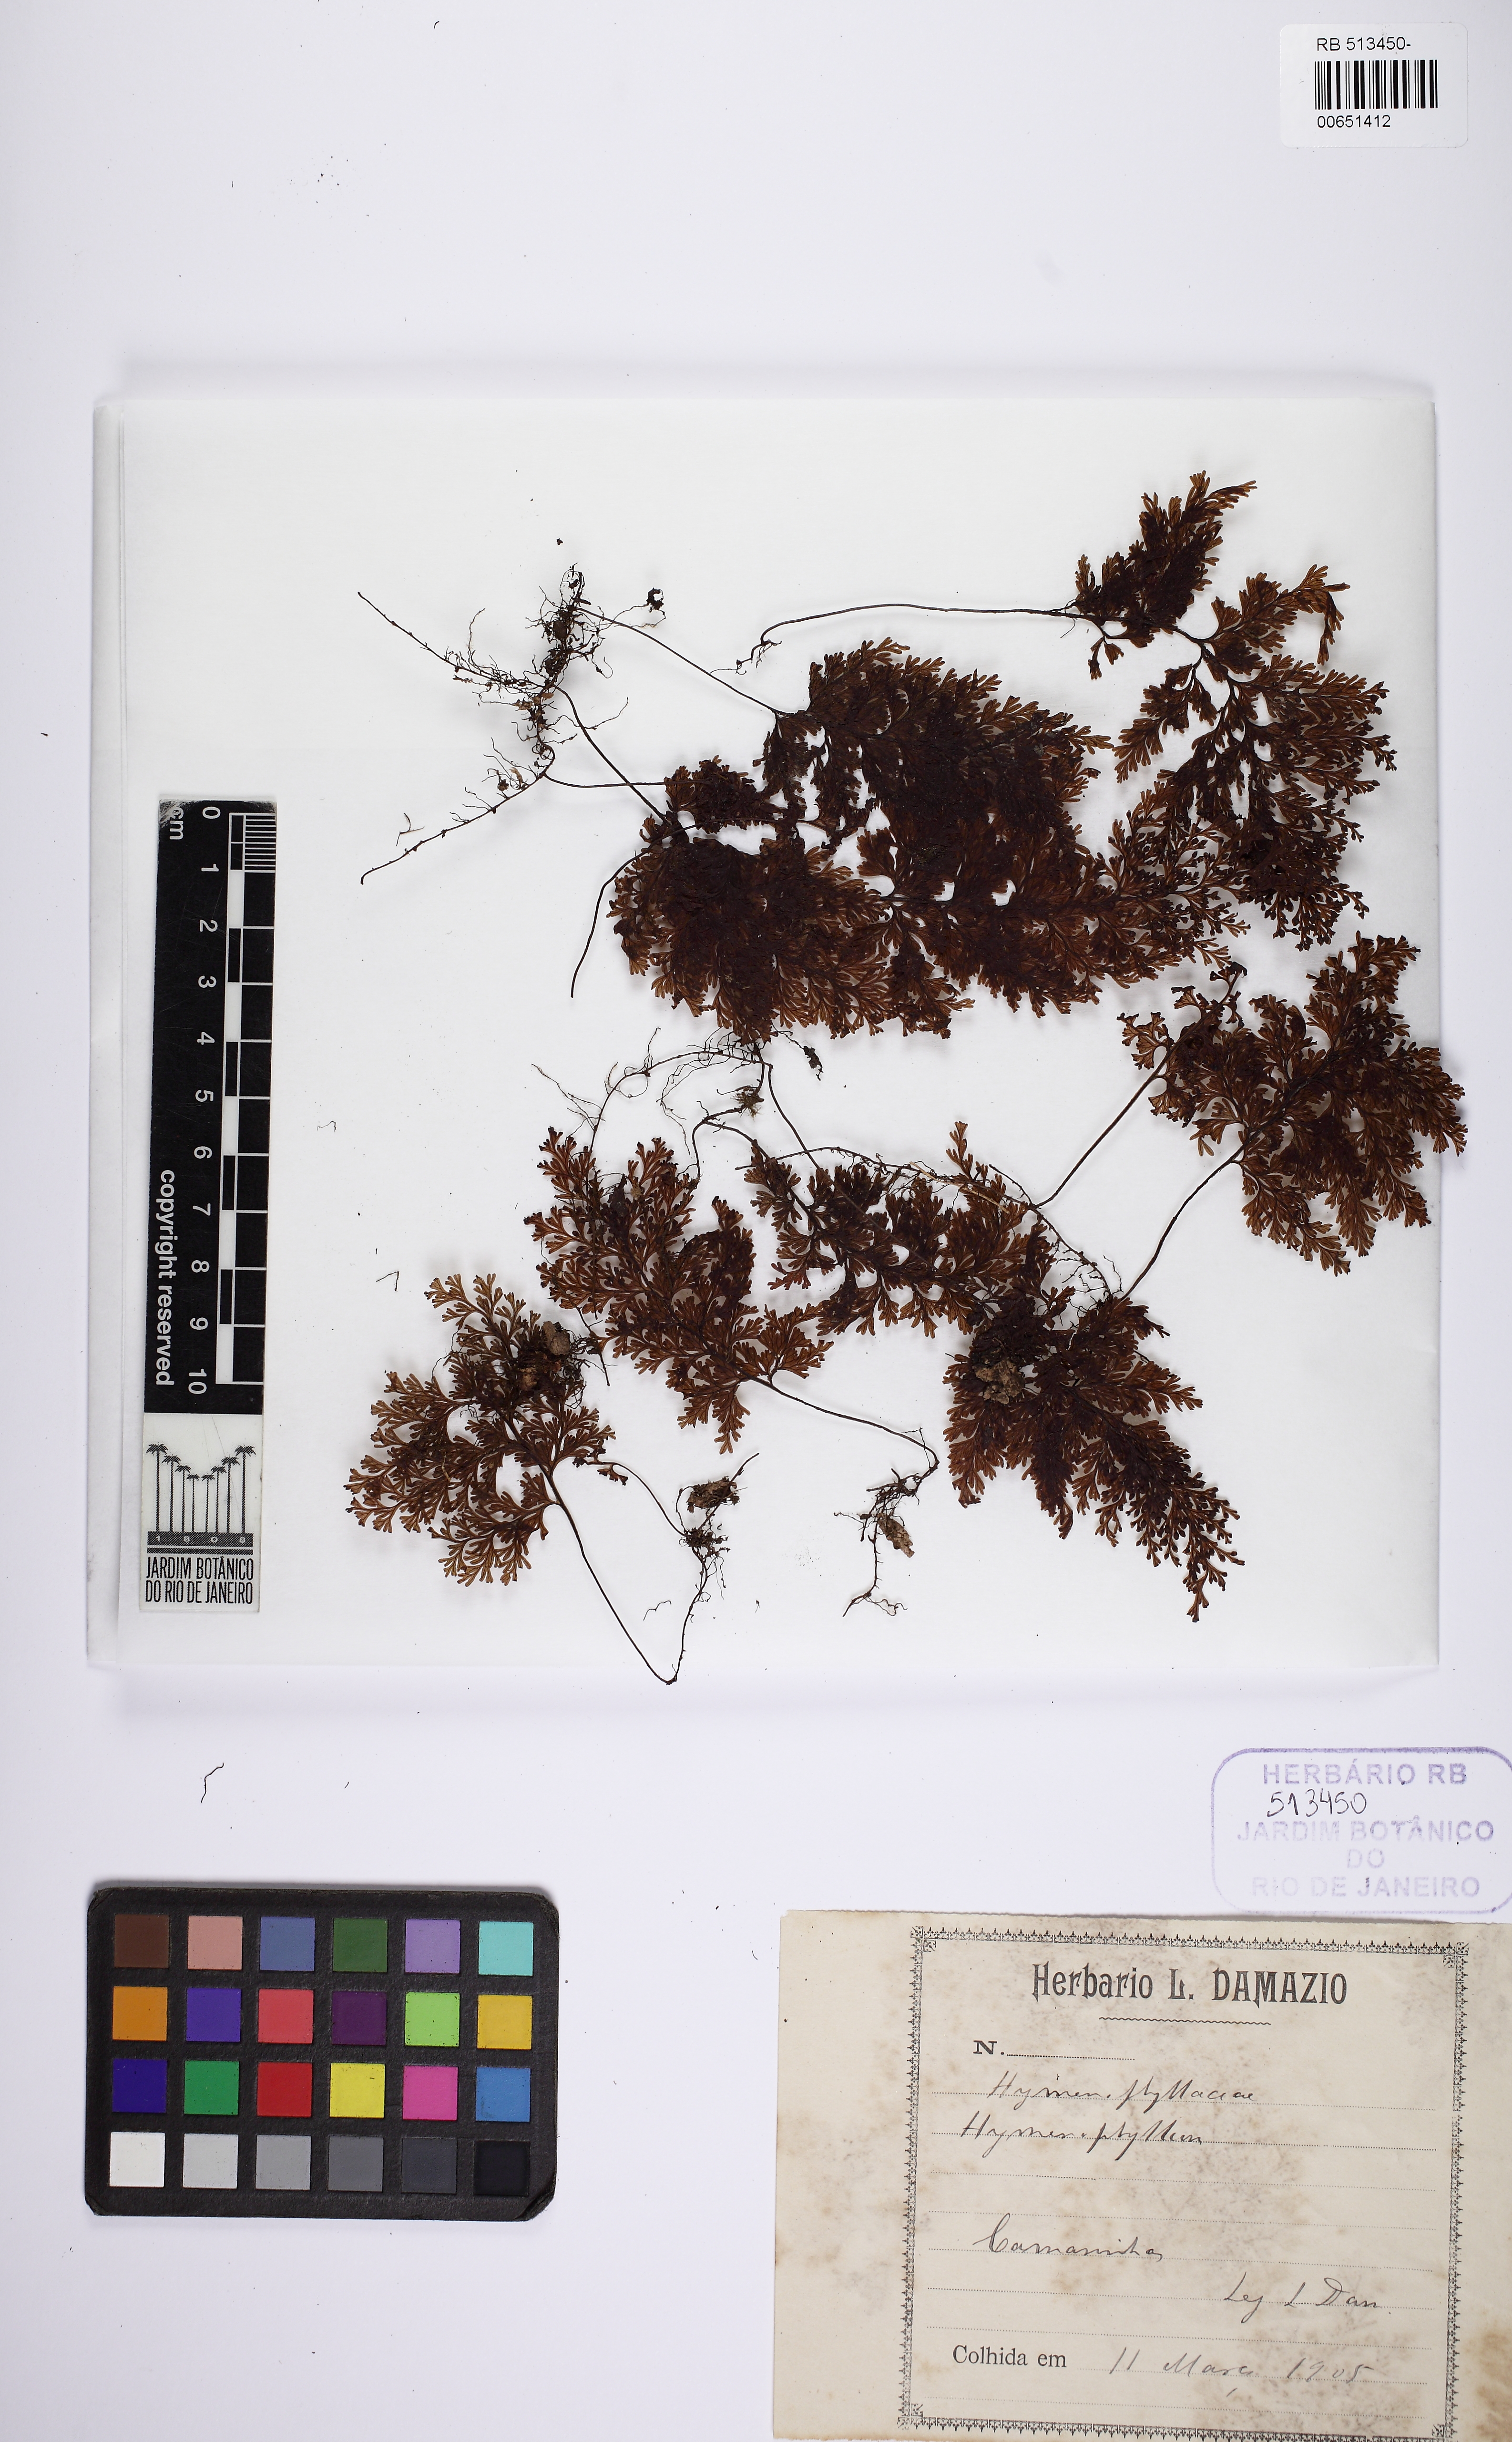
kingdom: Plantae
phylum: Tracheophyta
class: Polypodiopsida
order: Hymenophyllales
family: Hymenophyllaceae
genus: Hymenophyllum
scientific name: Hymenophyllum polyanthos
